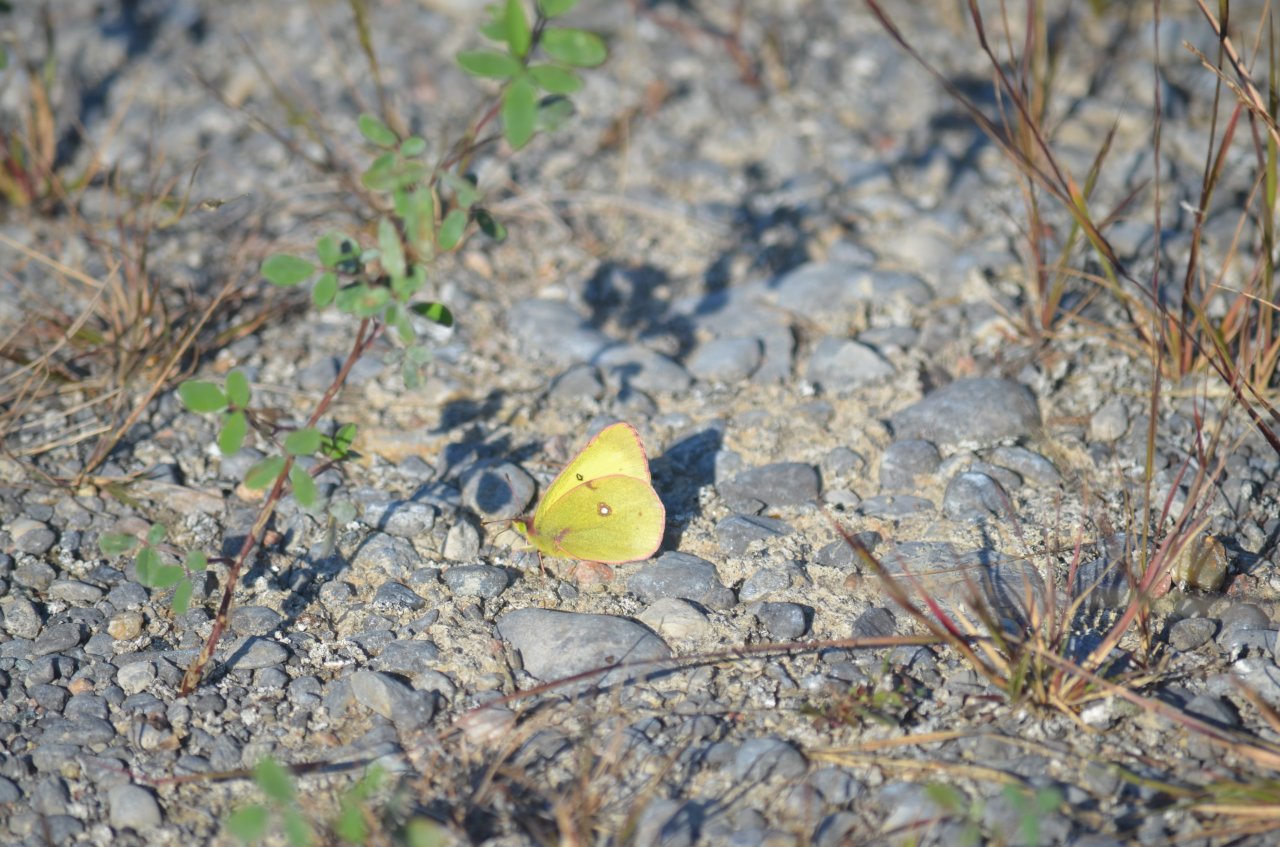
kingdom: Animalia
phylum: Arthropoda
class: Insecta
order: Lepidoptera
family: Pieridae
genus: Colias
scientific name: Colias philodice
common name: Clouded Sulphur
